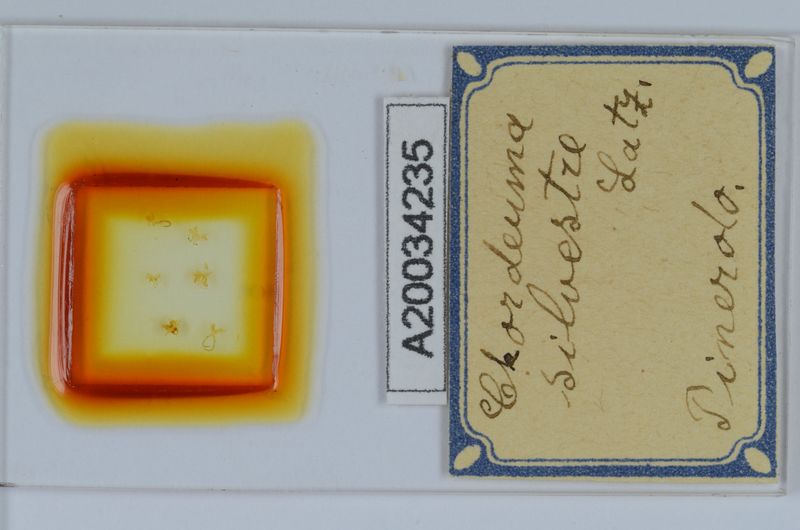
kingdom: Animalia
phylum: Arthropoda
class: Diplopoda
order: Chordeumatida
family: Chordeumatidae
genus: Chordeuma
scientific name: Chordeuma sylvestre
